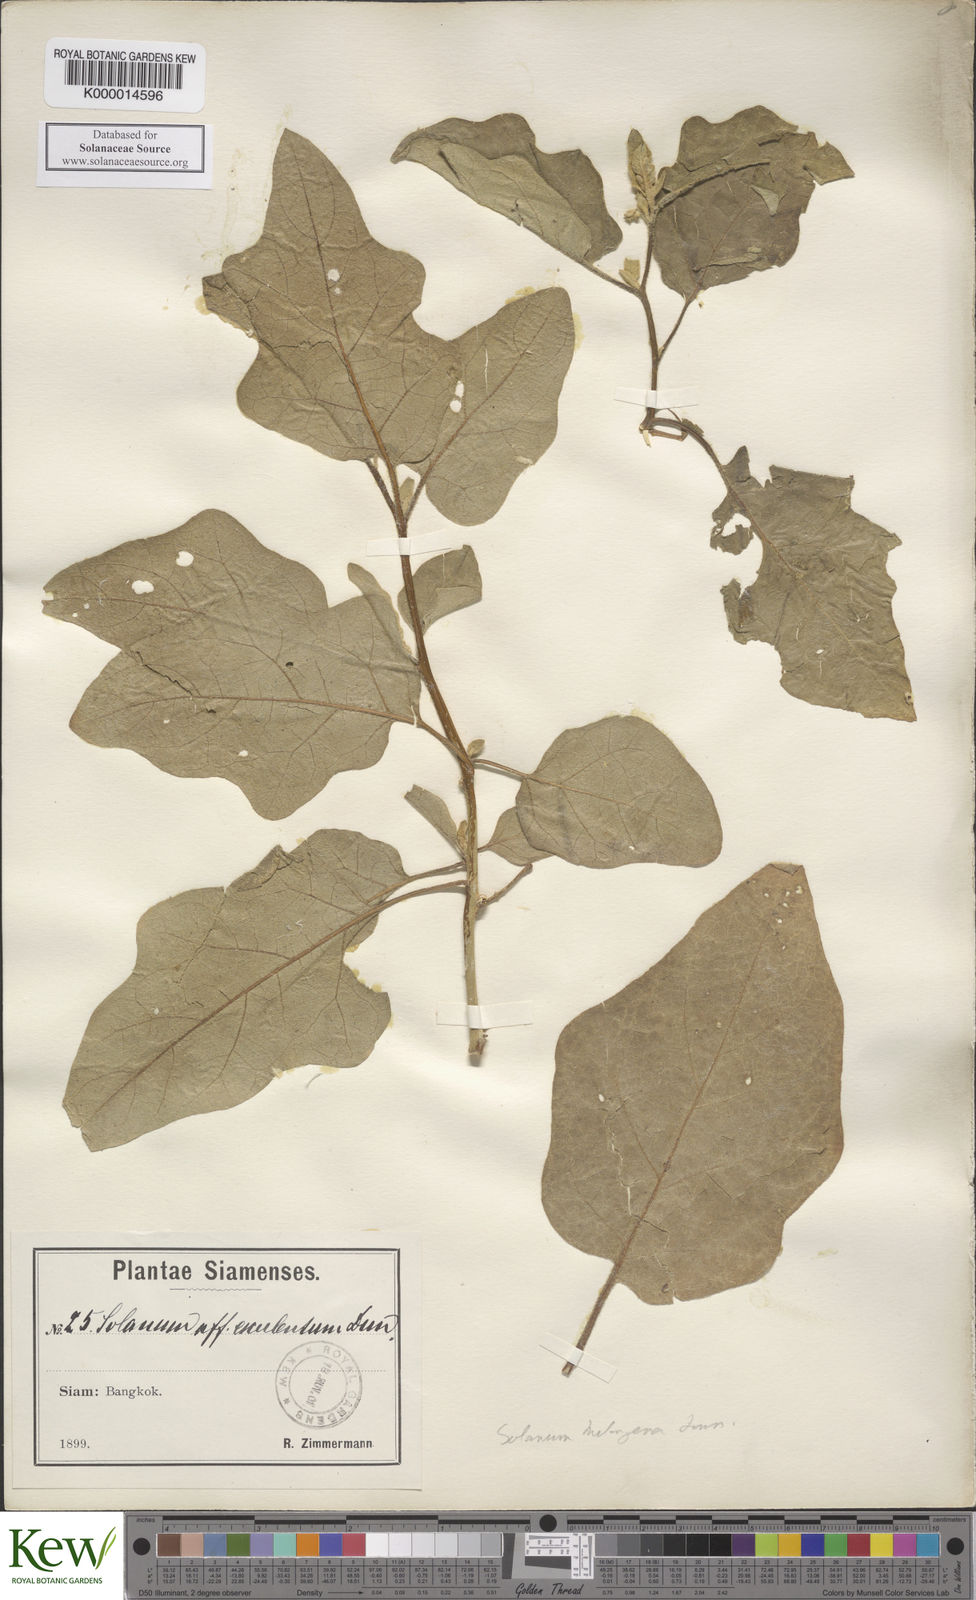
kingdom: Plantae
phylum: Tracheophyta
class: Magnoliopsida
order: Solanales
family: Solanaceae
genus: Solanum
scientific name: Solanum melongena
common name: Eggplant
